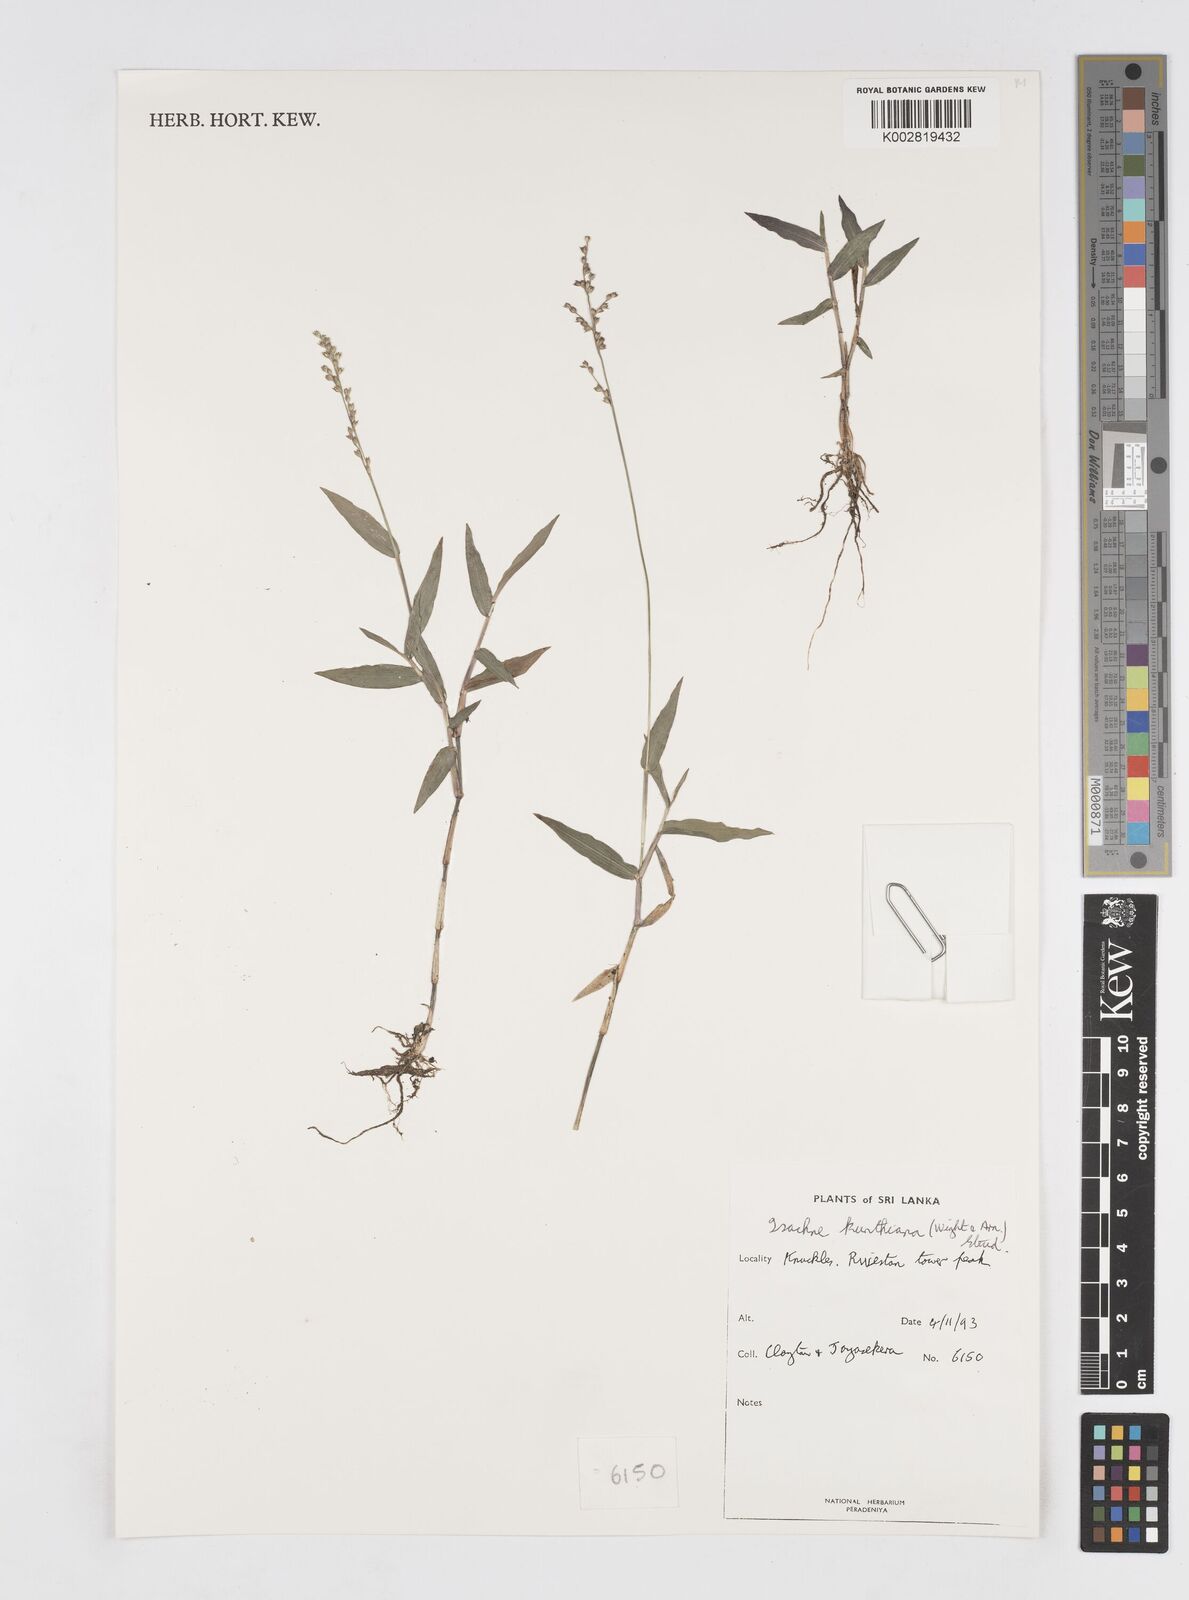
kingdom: Plantae
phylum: Tracheophyta
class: Liliopsida
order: Poales
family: Poaceae
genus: Isachne
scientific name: Isachne kunthiana
